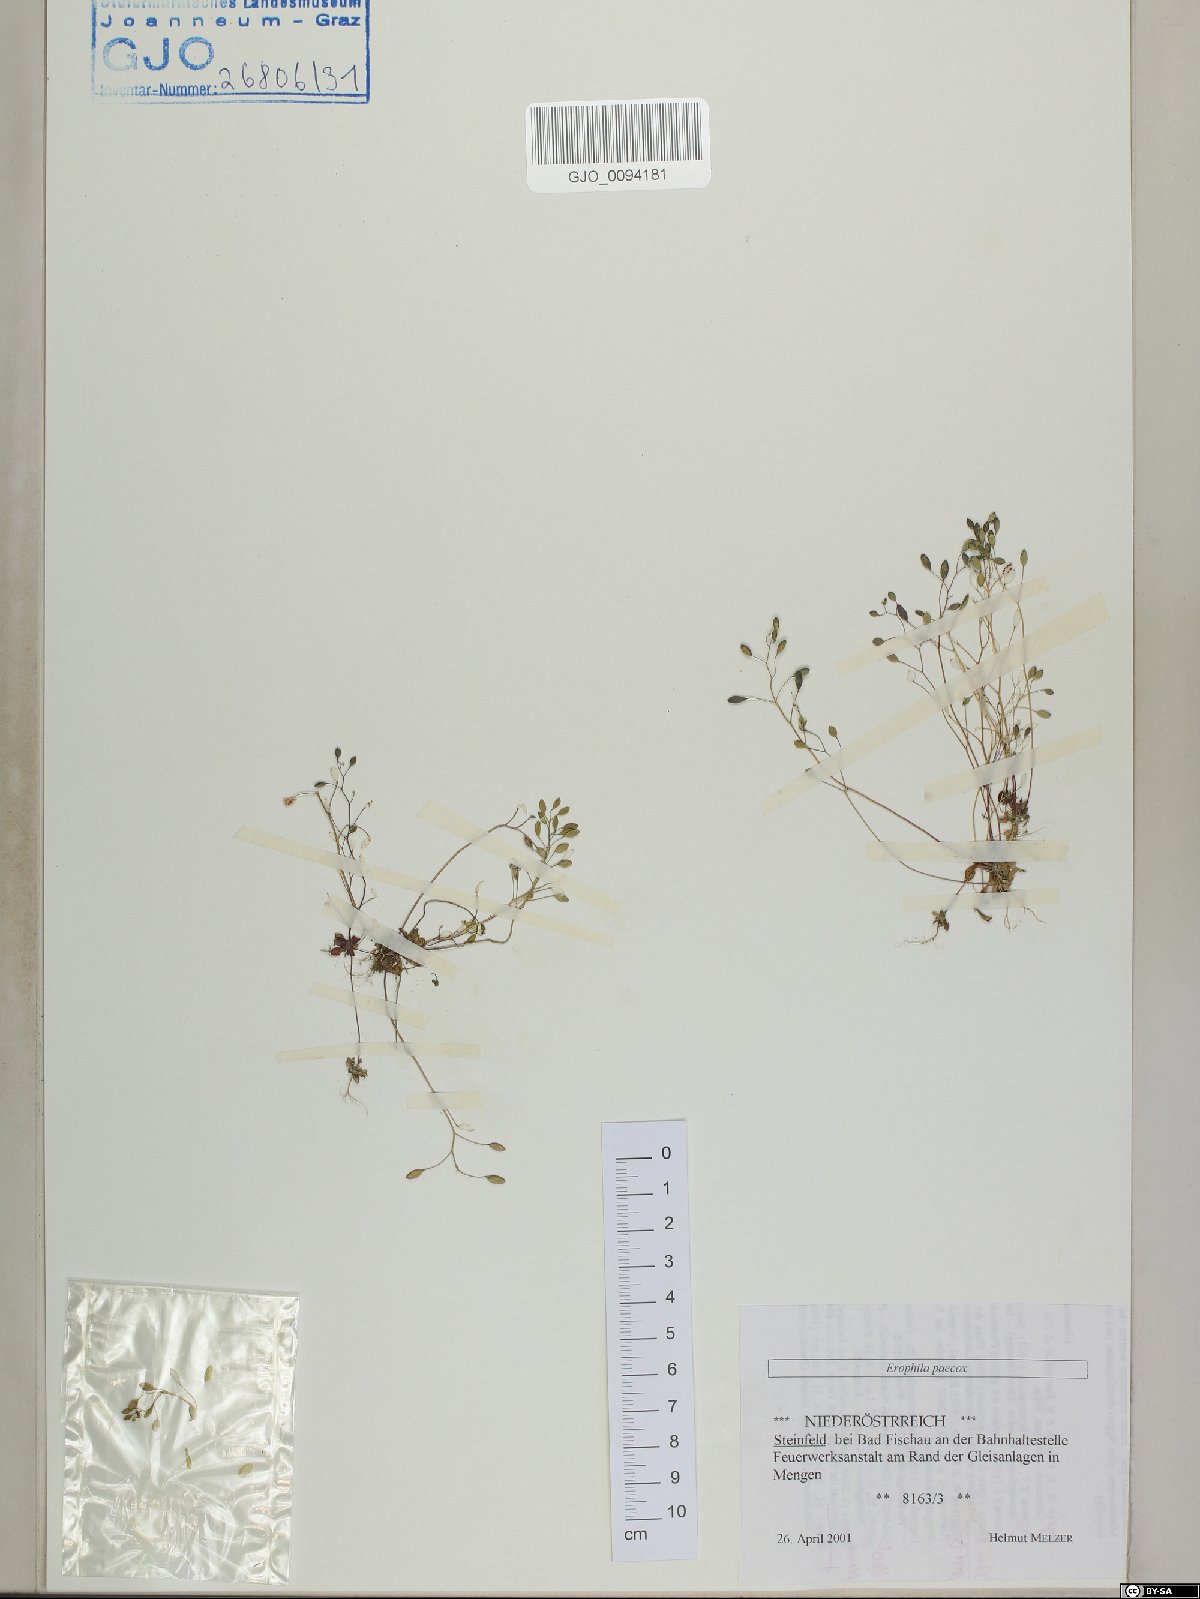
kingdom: Plantae
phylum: Tracheophyta
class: Magnoliopsida
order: Brassicales
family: Brassicaceae
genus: Draba
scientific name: Draba verna
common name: Spring draba
